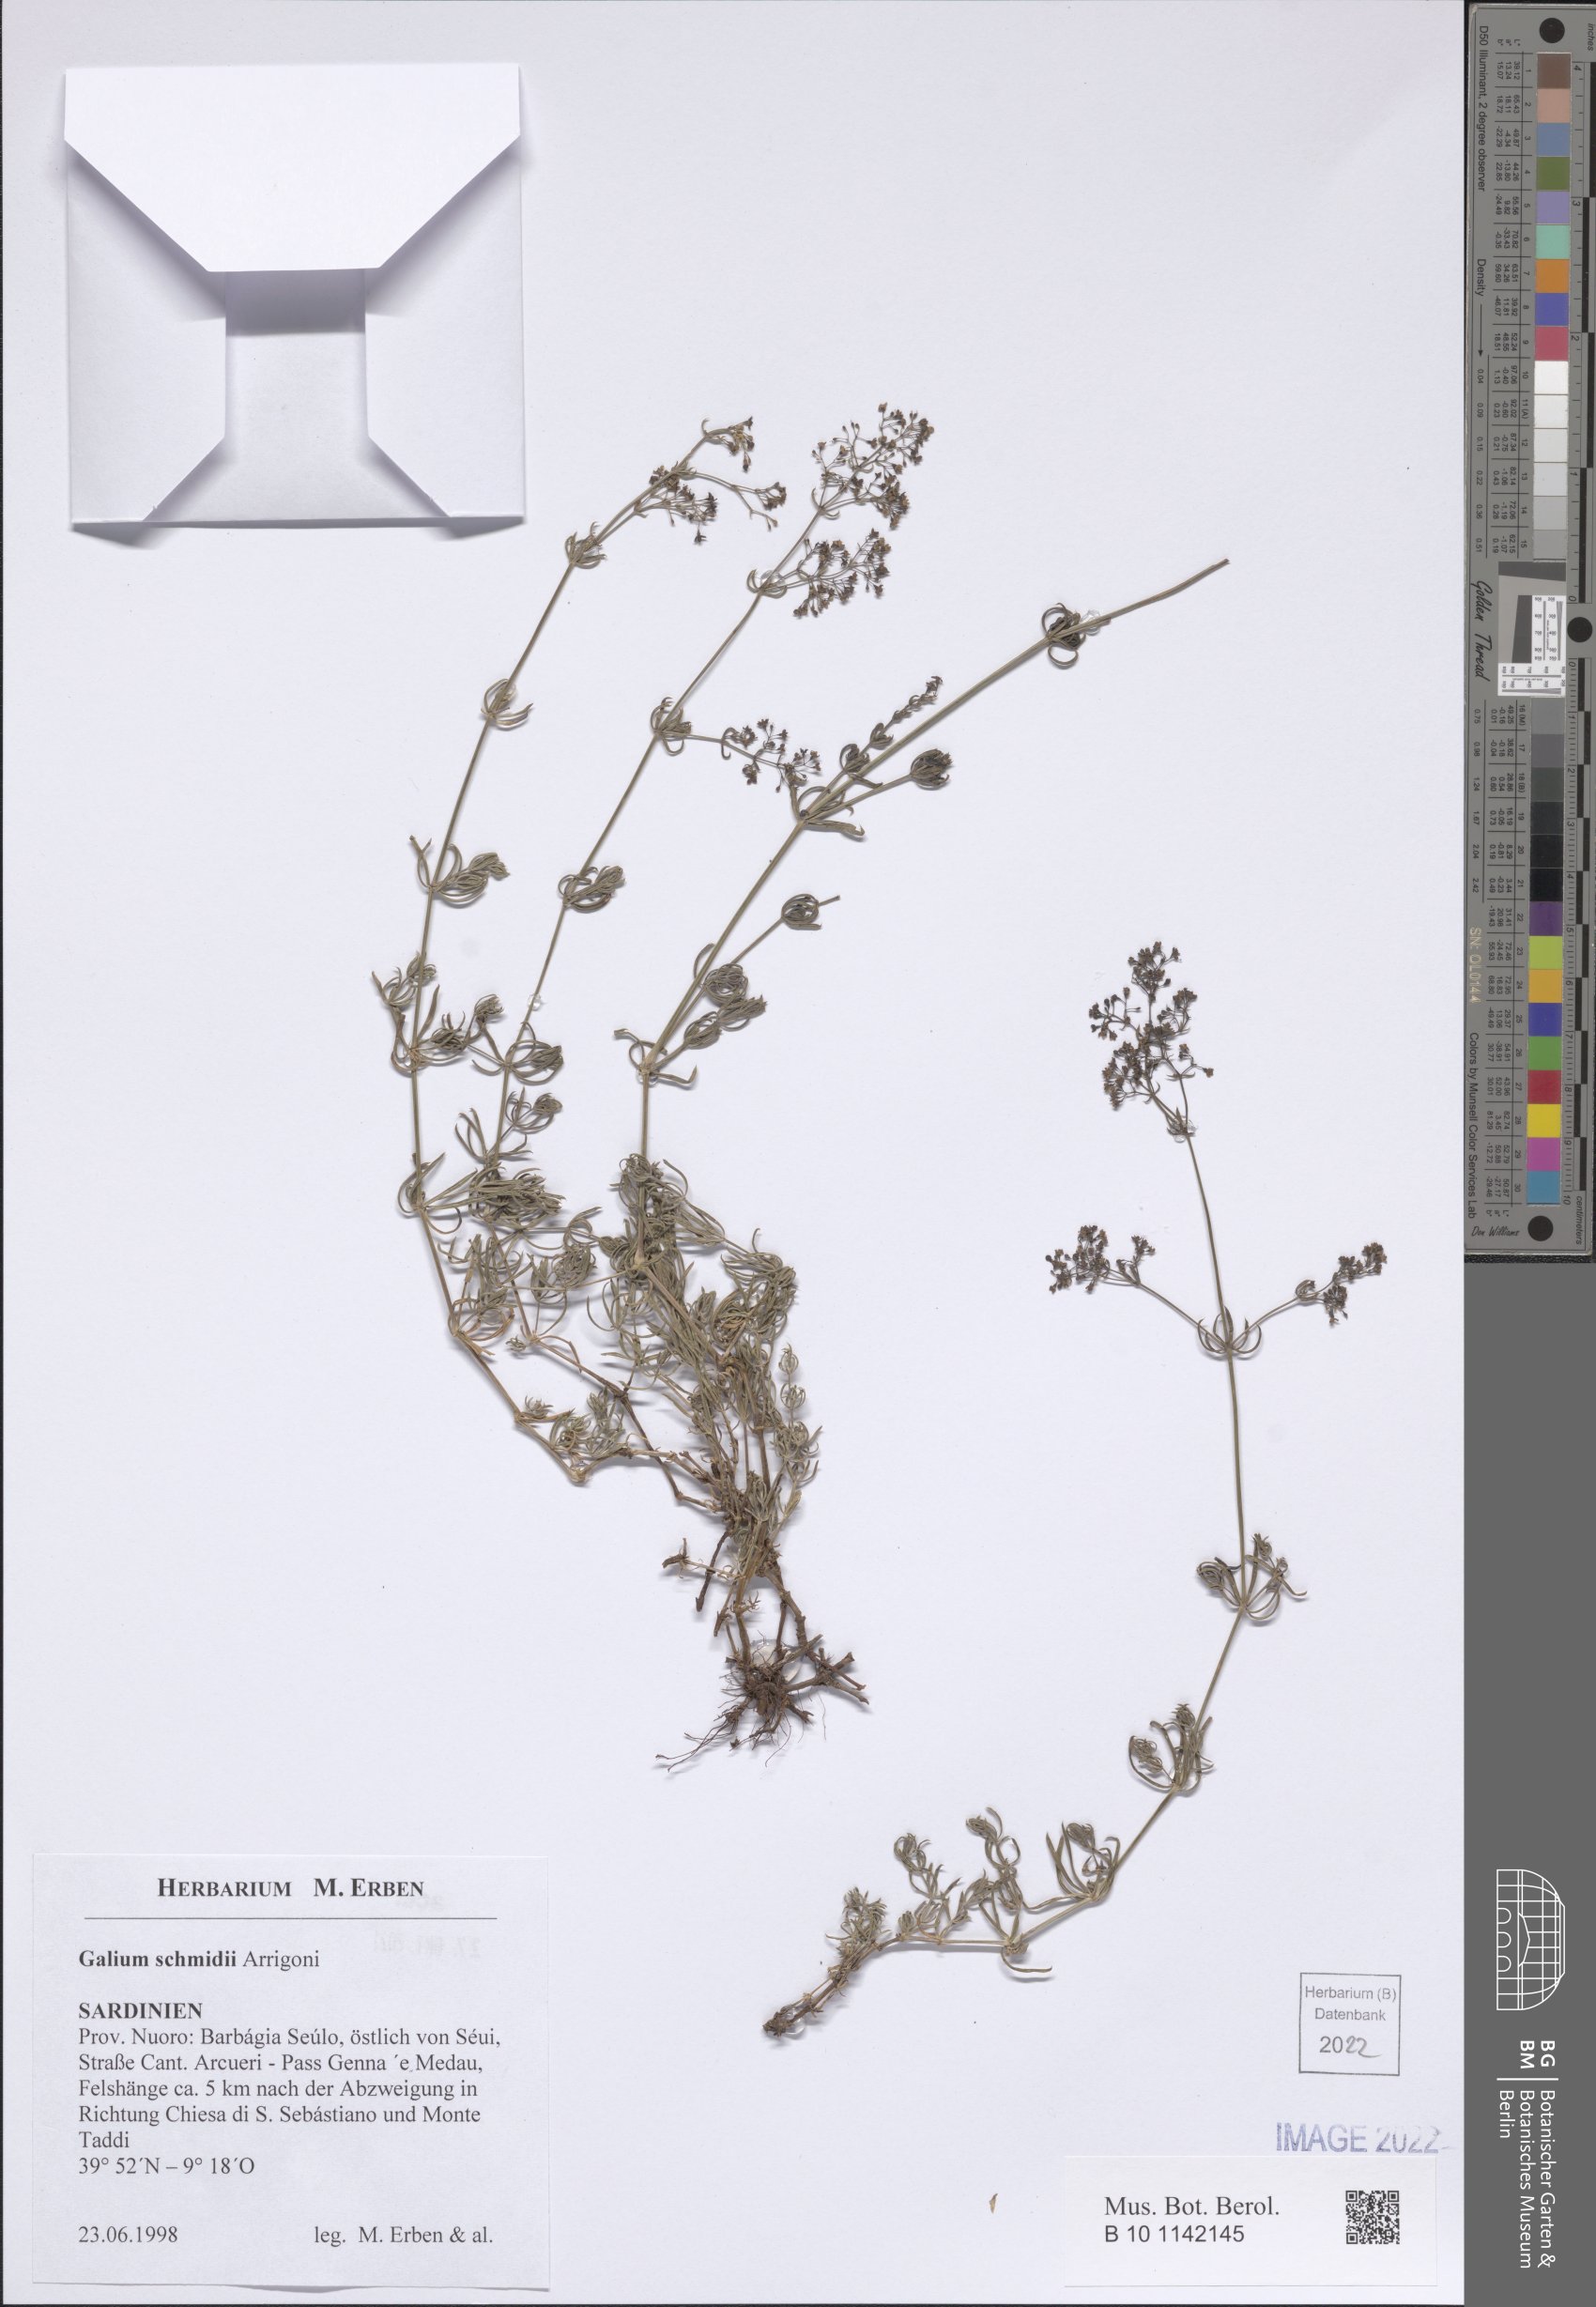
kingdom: Plantae
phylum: Tracheophyta
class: Magnoliopsida
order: Gentianales
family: Rubiaceae
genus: Galium
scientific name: Galium schmidii
